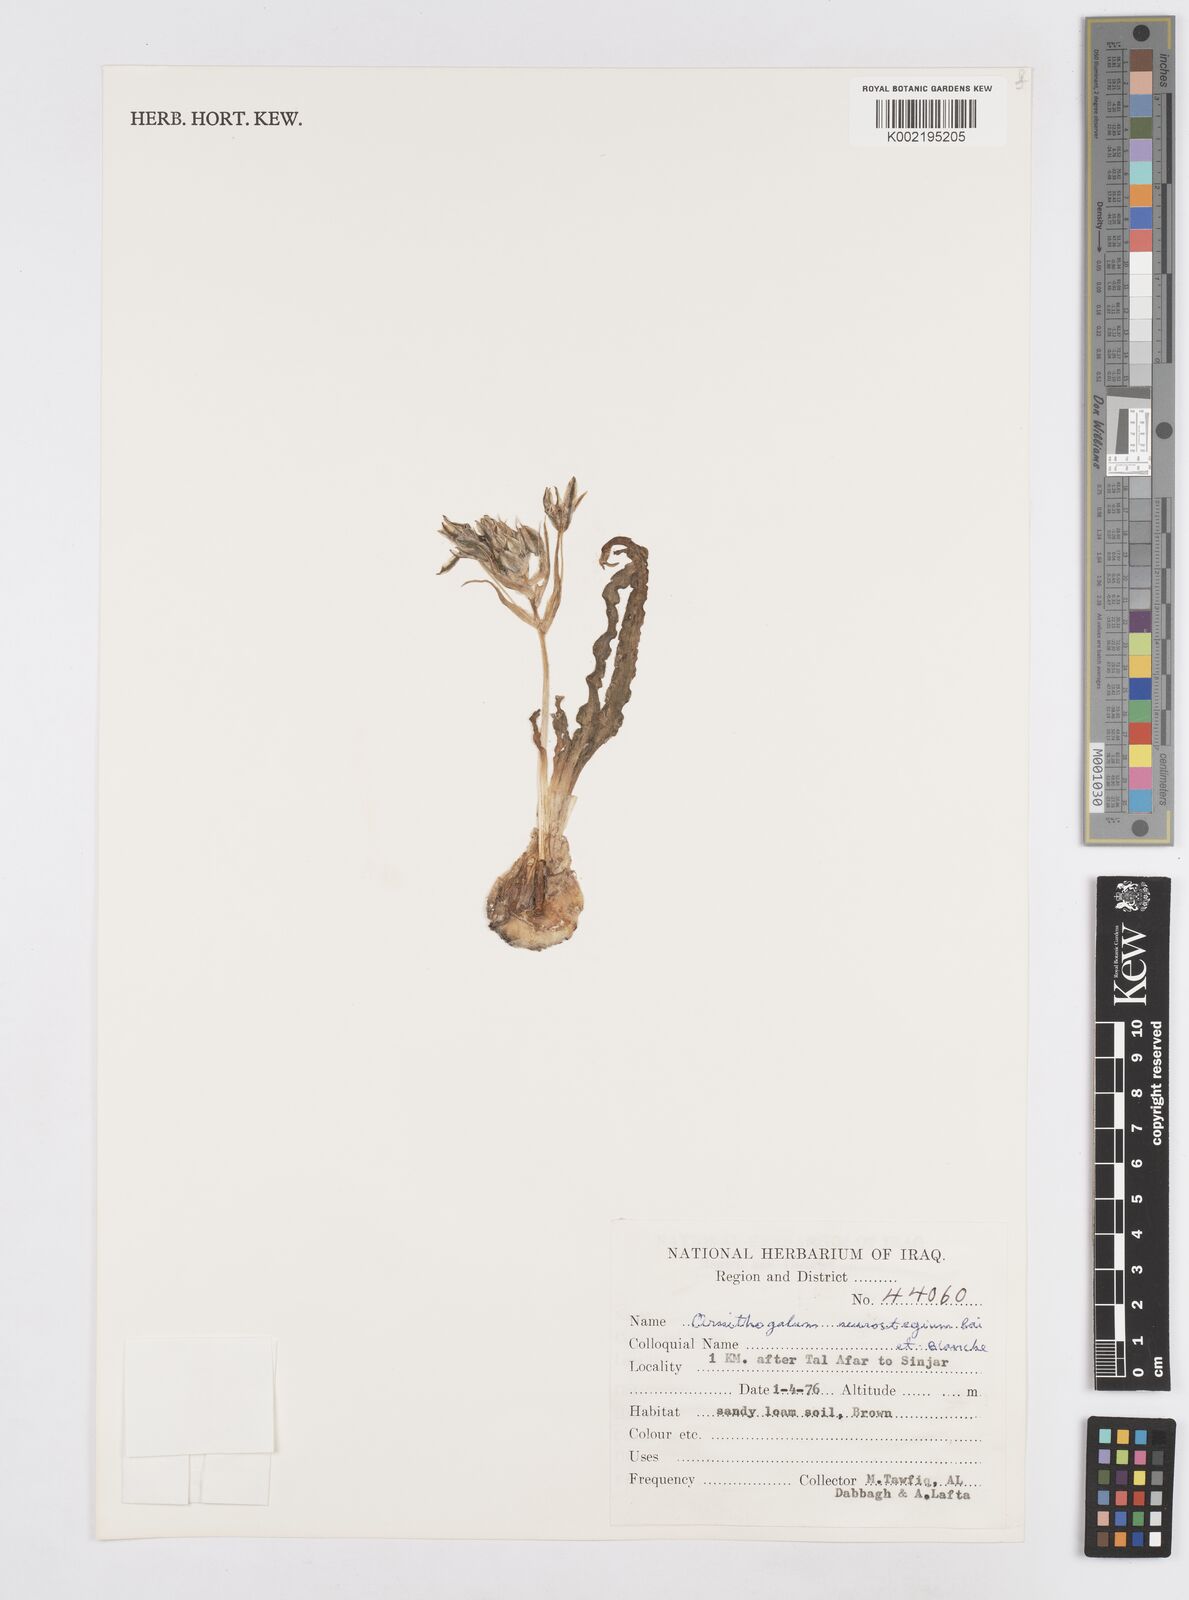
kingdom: Plantae
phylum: Tracheophyta
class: Liliopsida
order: Asparagales
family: Asparagaceae
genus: Ornithogalum
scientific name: Ornithogalum neurostegium
